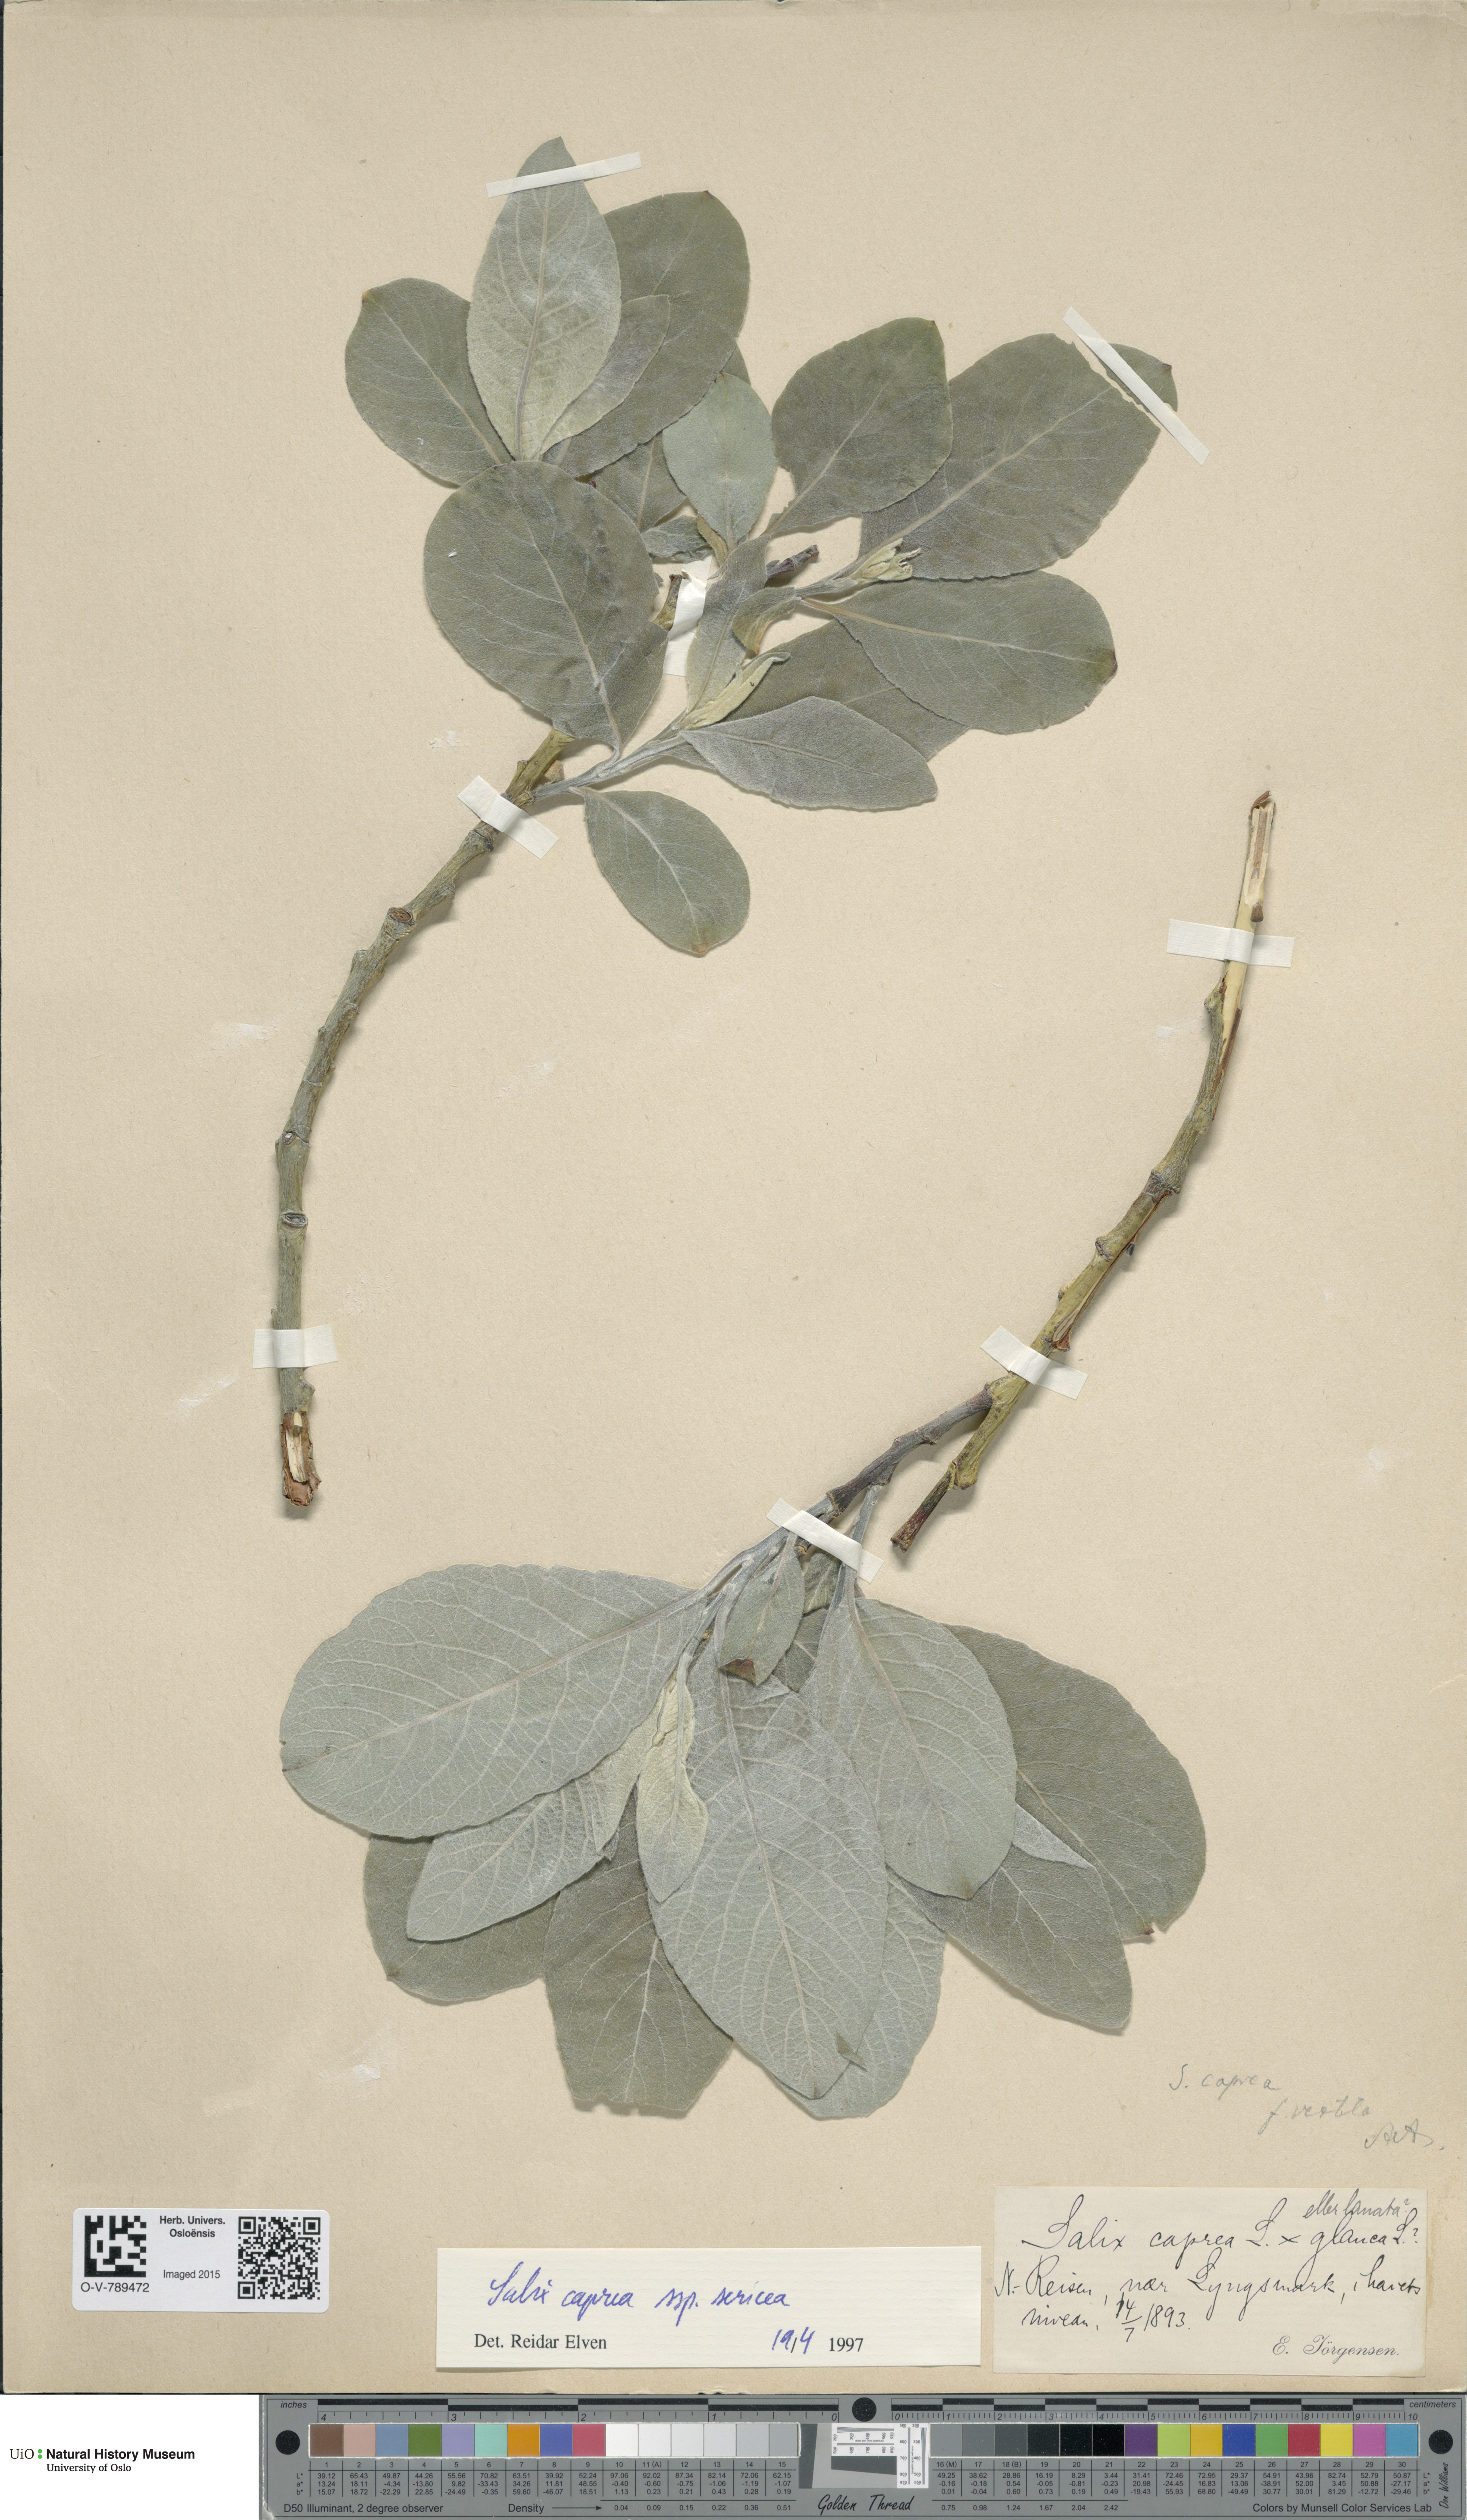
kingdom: Plantae
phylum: Tracheophyta
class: Magnoliopsida
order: Malpighiales
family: Salicaceae
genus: Salix
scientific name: Salix caprea
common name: Goat willow
